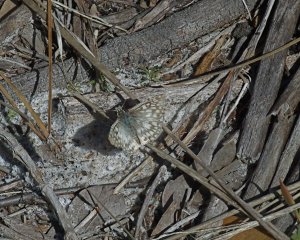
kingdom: Animalia
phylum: Arthropoda
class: Insecta
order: Lepidoptera
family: Hesperiidae
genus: Pyrgus
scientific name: Pyrgus oileus
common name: Tropical Checkered-Skipper
